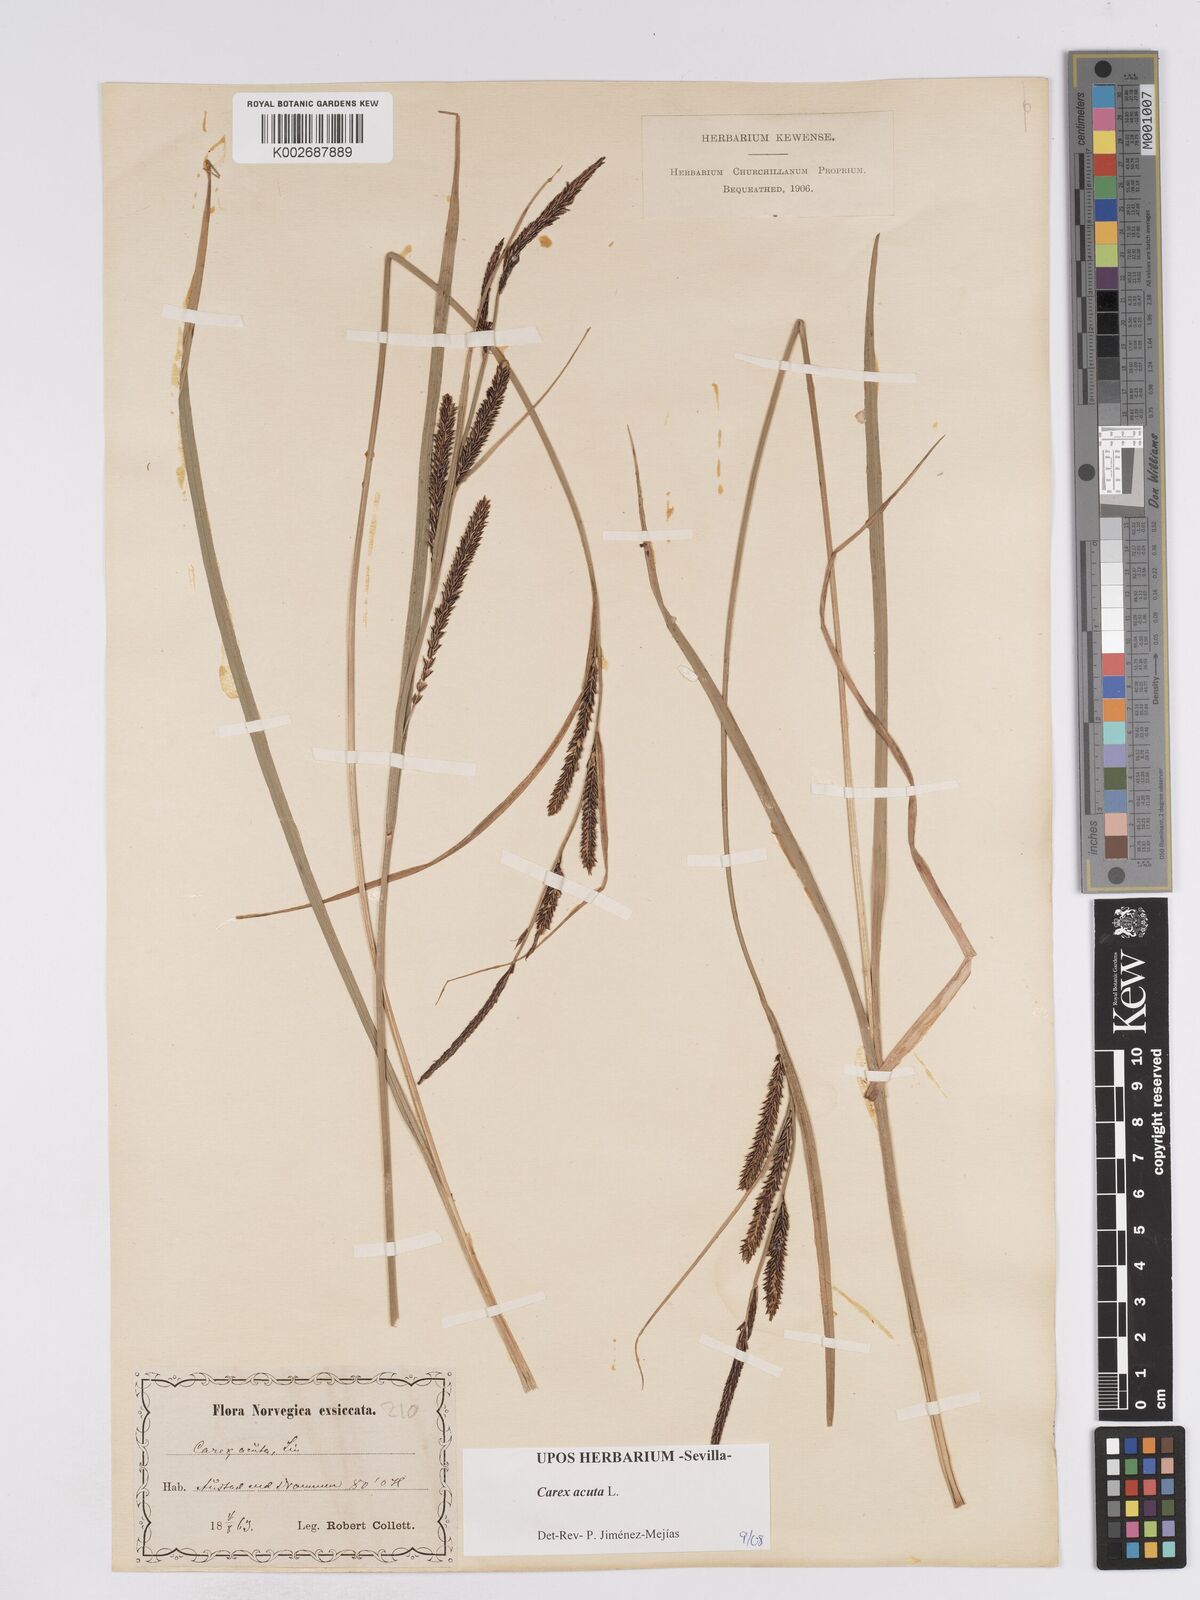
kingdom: Plantae
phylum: Tracheophyta
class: Liliopsida
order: Poales
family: Cyperaceae
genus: Carex
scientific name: Carex acuta
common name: Slender tufted-sedge
